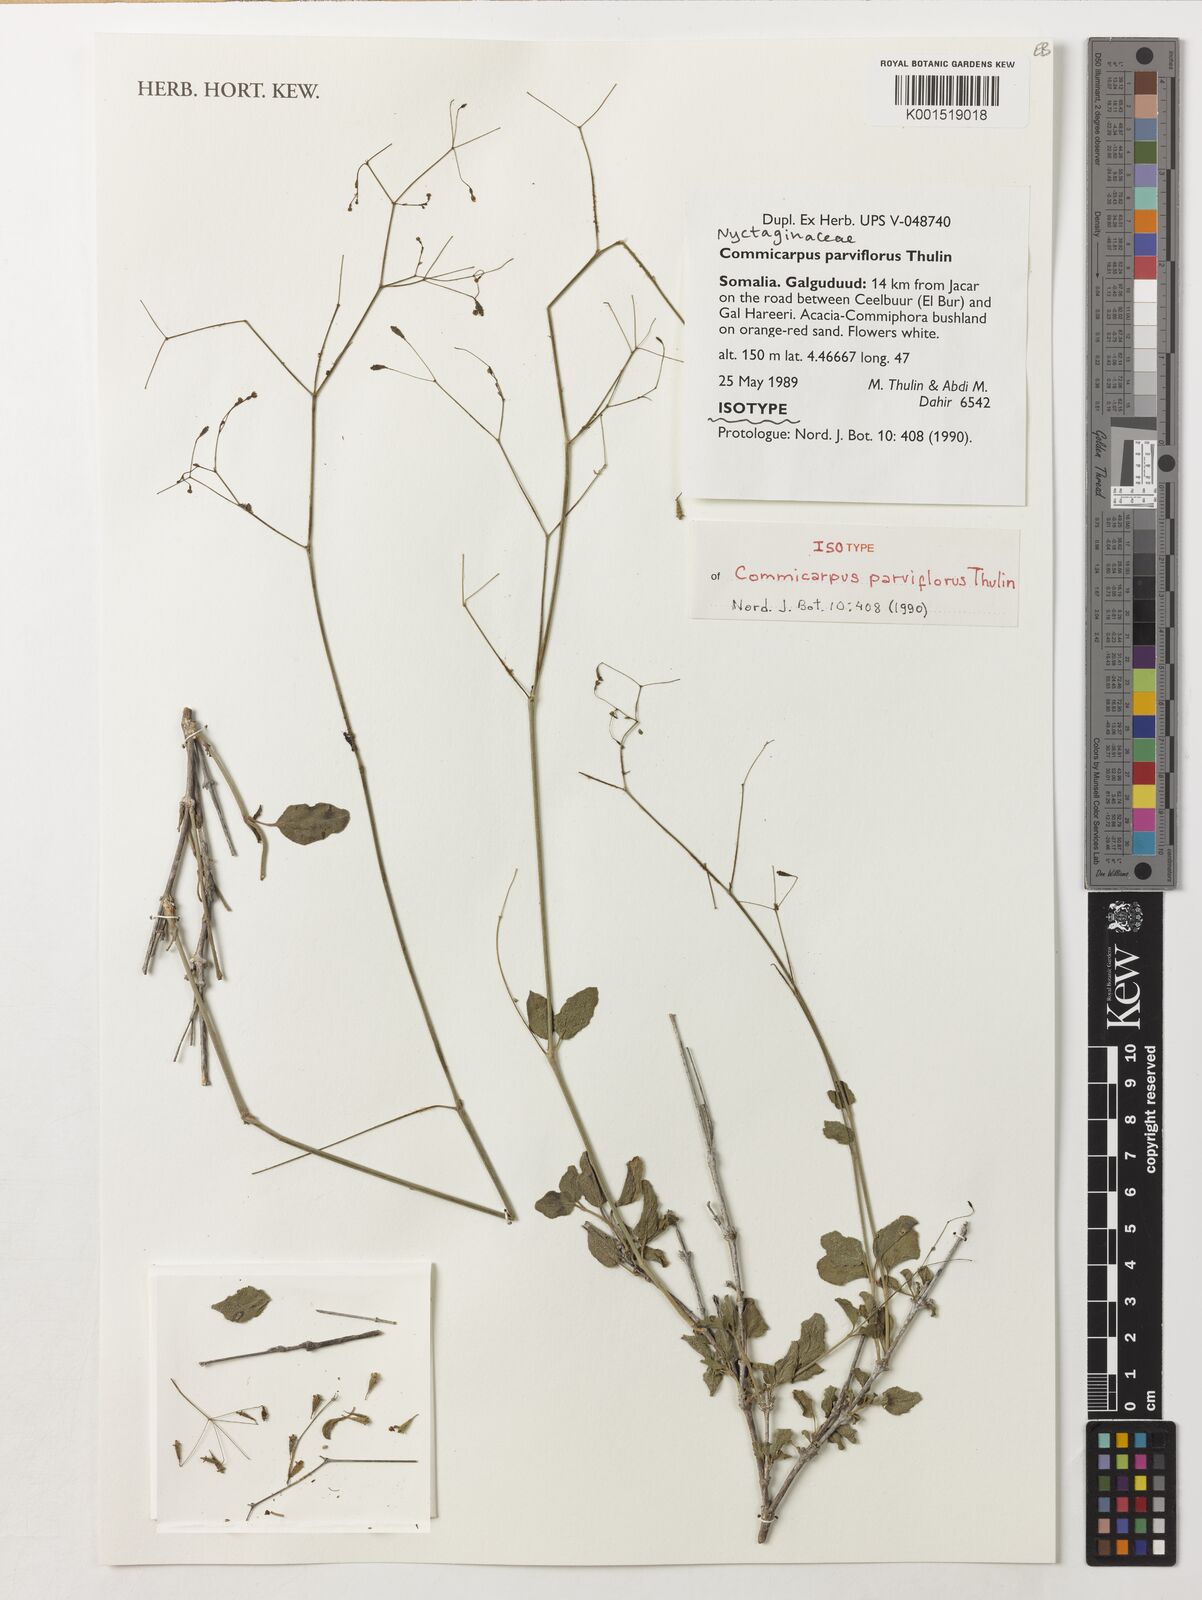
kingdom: Plantae
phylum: Tracheophyta
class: Magnoliopsida
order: Caryophyllales
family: Nyctaginaceae
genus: Commicarpus
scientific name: Commicarpus parviflorus
